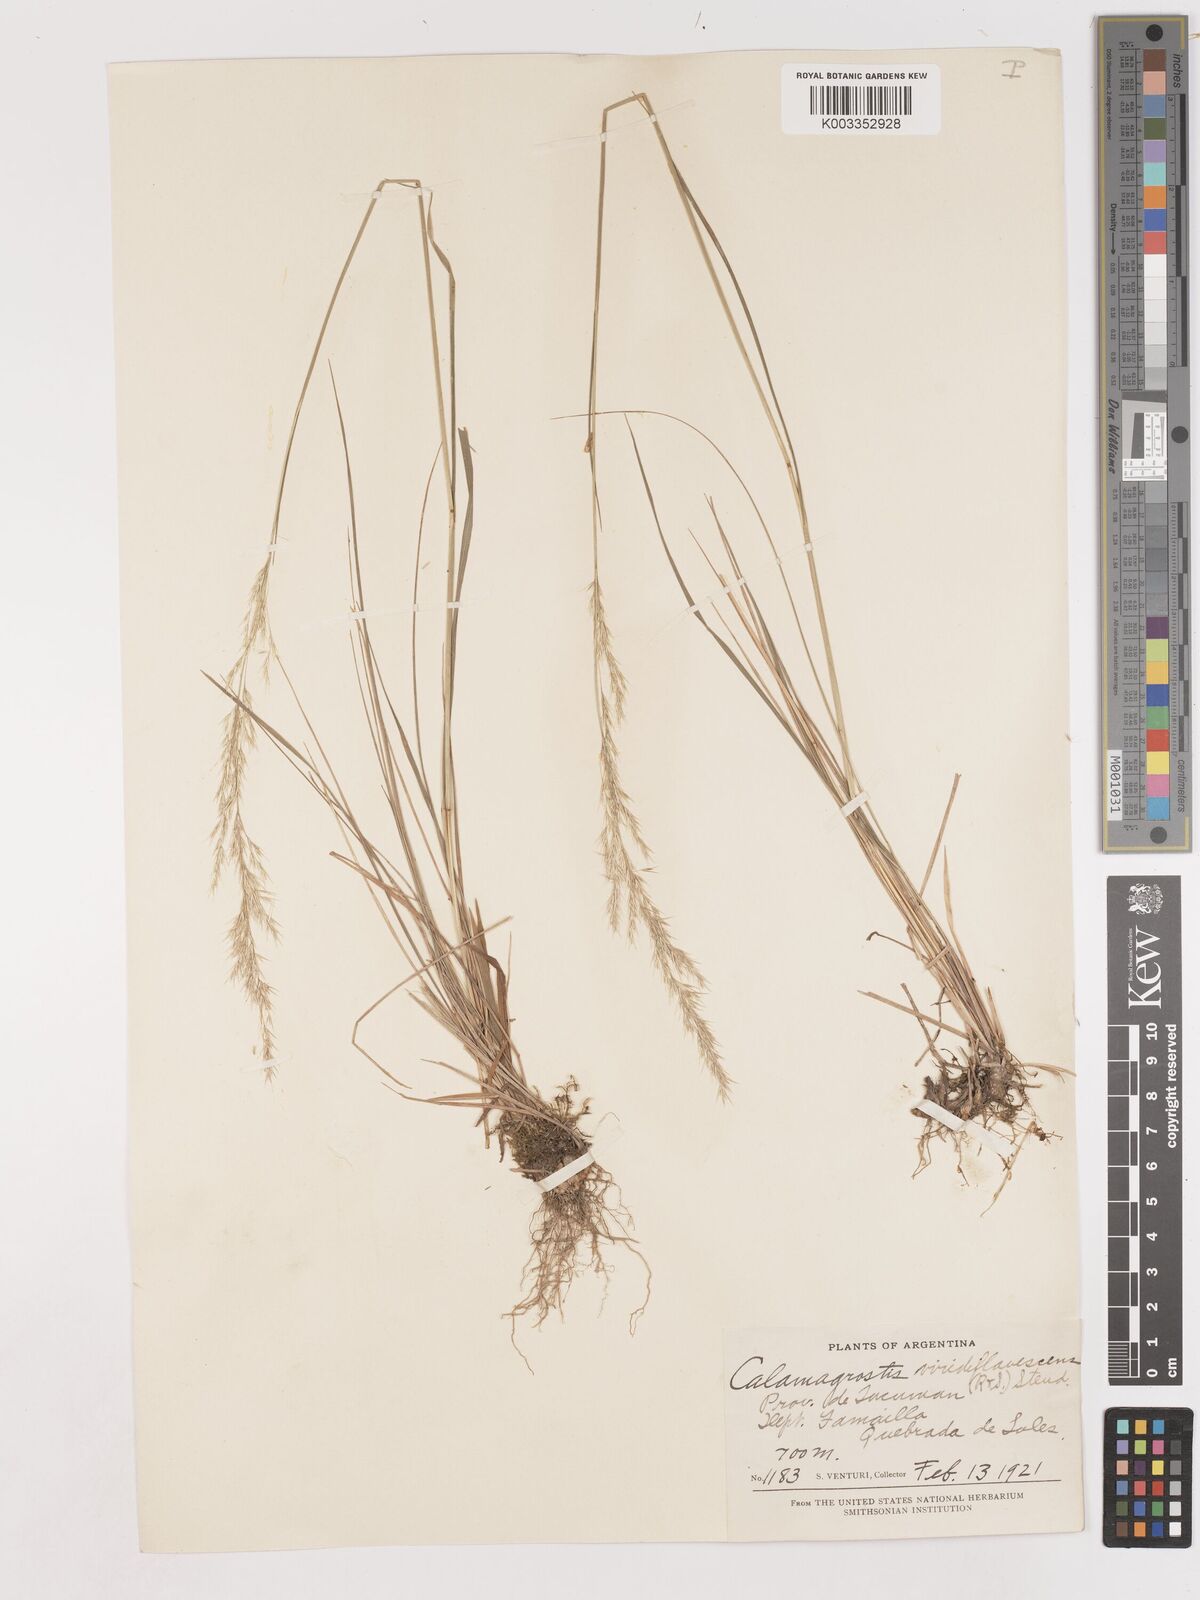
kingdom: Plantae
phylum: Tracheophyta
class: Liliopsida
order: Poales
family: Poaceae
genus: Cinnagrostis
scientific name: Cinnagrostis viridiflavescens
